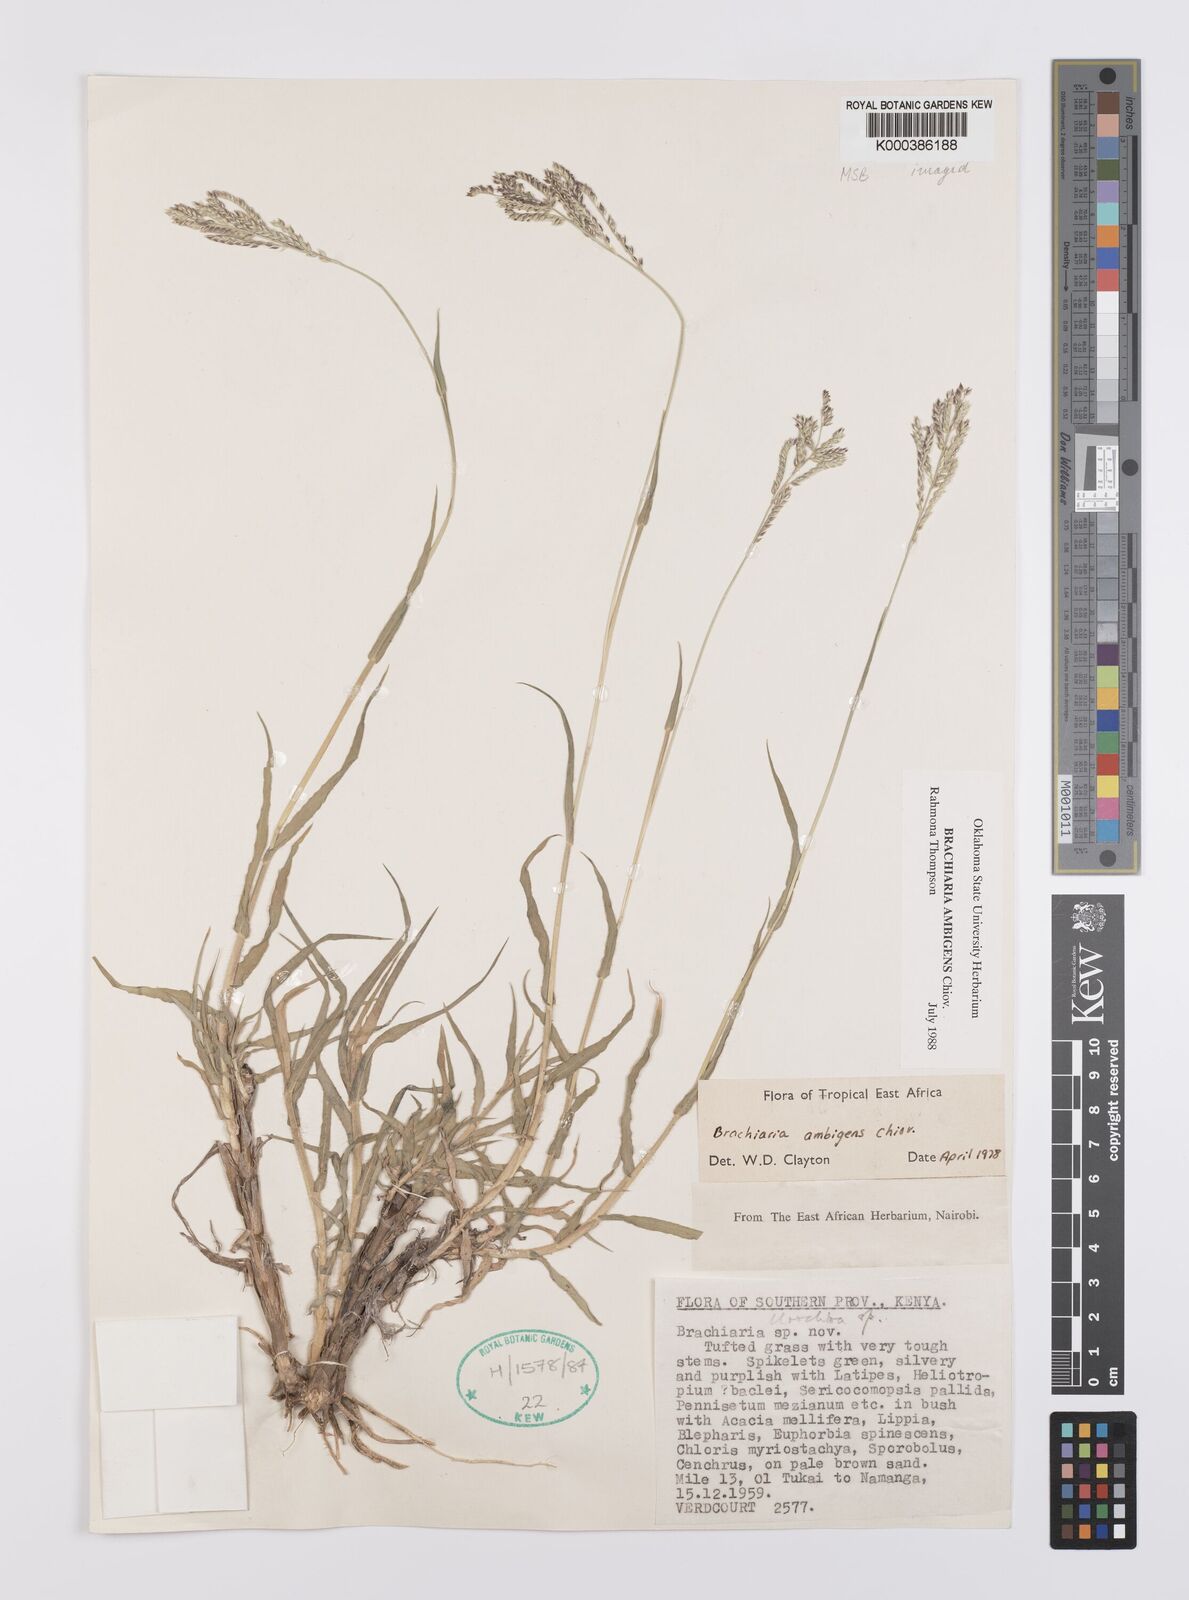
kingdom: Plantae
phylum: Tracheophyta
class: Liliopsida
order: Poales
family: Poaceae
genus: Urochloa
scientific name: Urochloa Brachiaria ambigens
